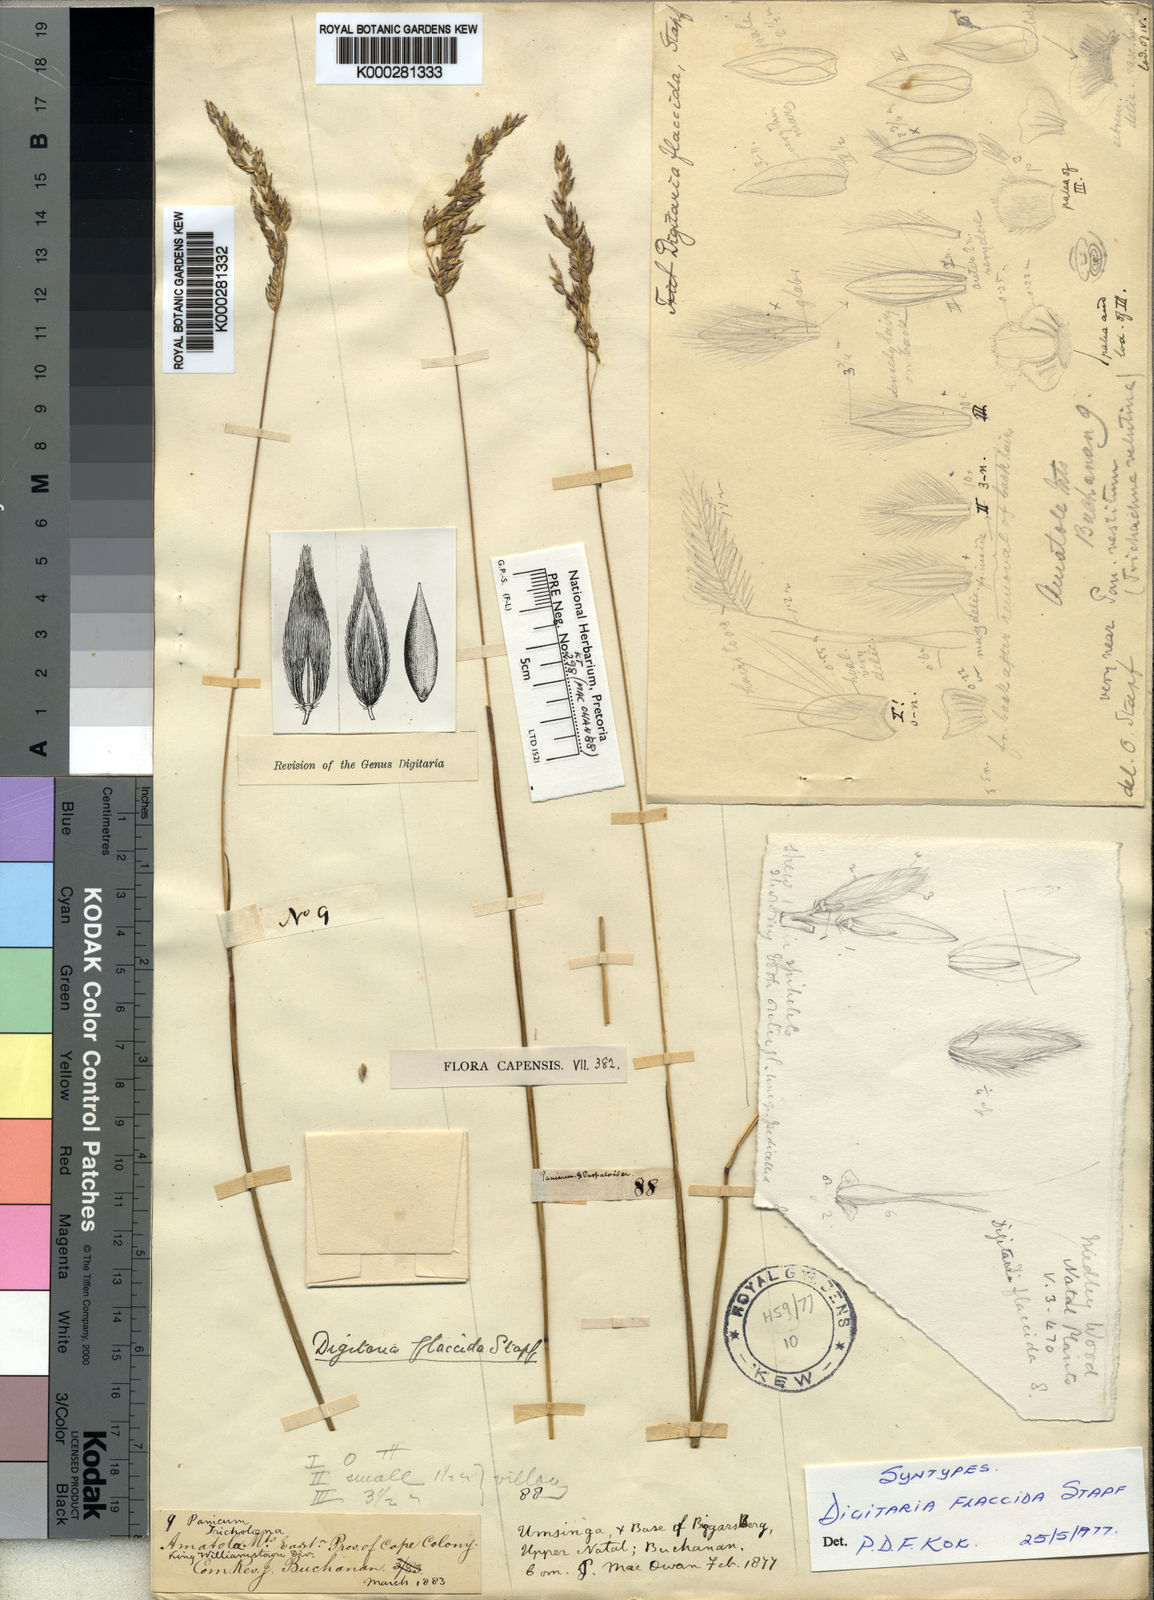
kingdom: Plantae
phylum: Tracheophyta
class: Liliopsida
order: Poales
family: Poaceae
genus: Digitaria
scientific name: Digitaria flaccida
